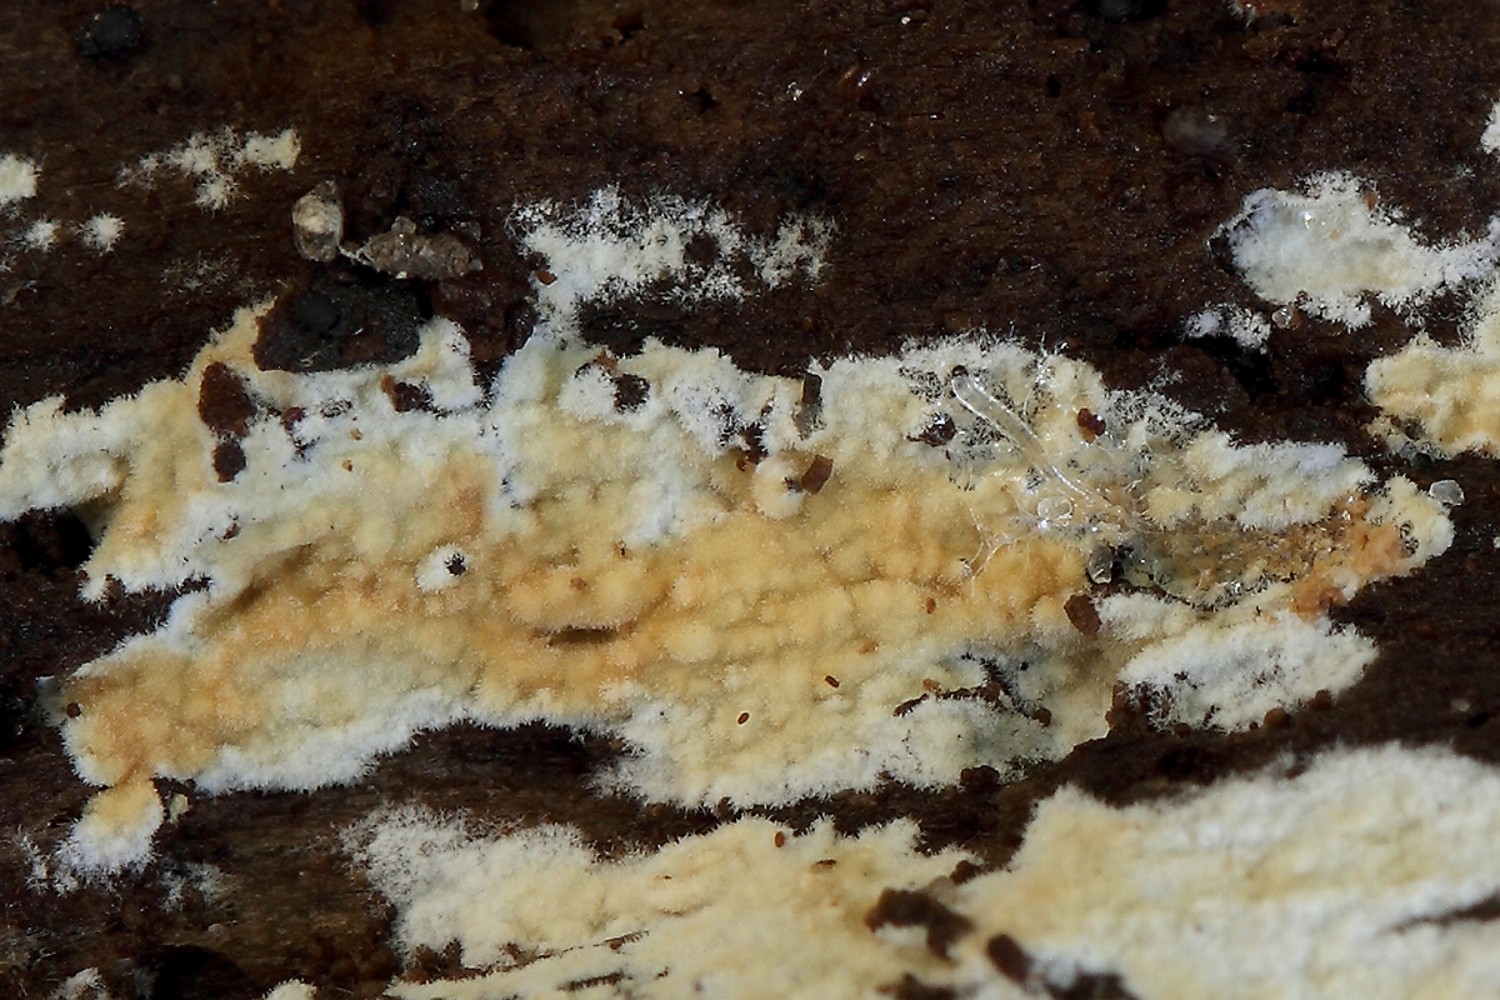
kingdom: Fungi
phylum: Basidiomycota
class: Agaricomycetes
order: Hymenochaetales
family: Rickenellaceae
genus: Odonticium
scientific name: Odonticium septocystidia
